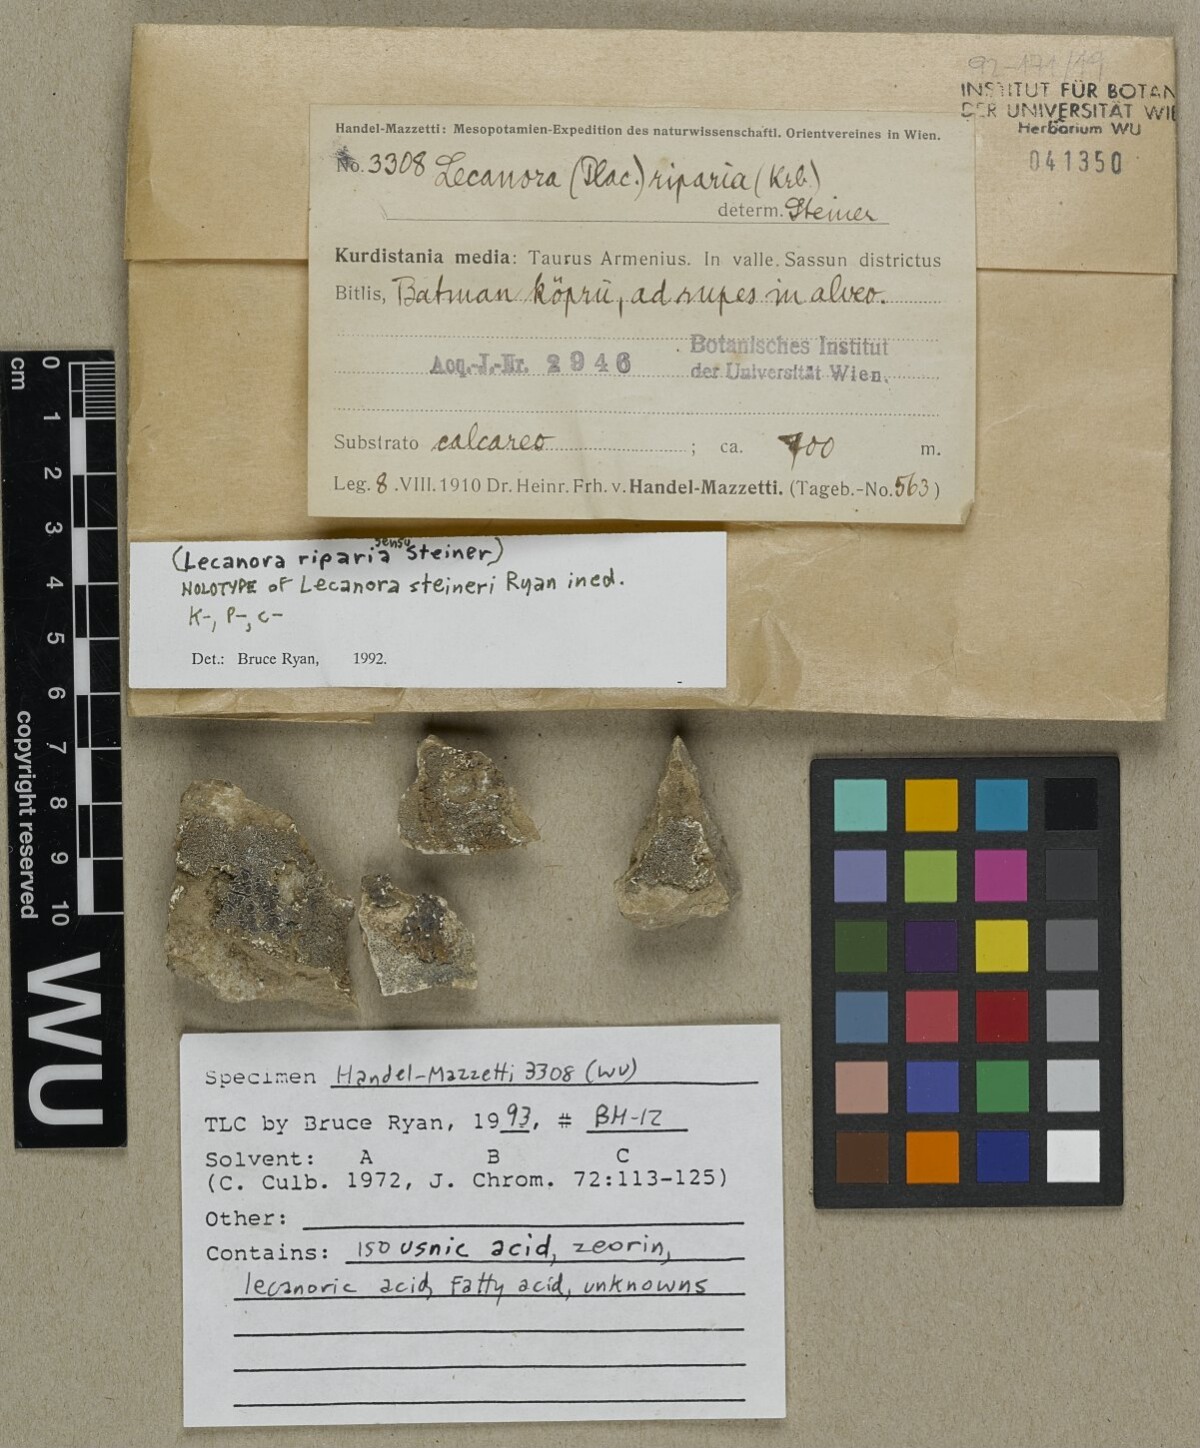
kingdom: Fungi
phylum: Ascomycota
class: Lecanoromycetes
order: Lecanorales
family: Lecanoraceae
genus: Lecanora
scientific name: Lecanora grantii
